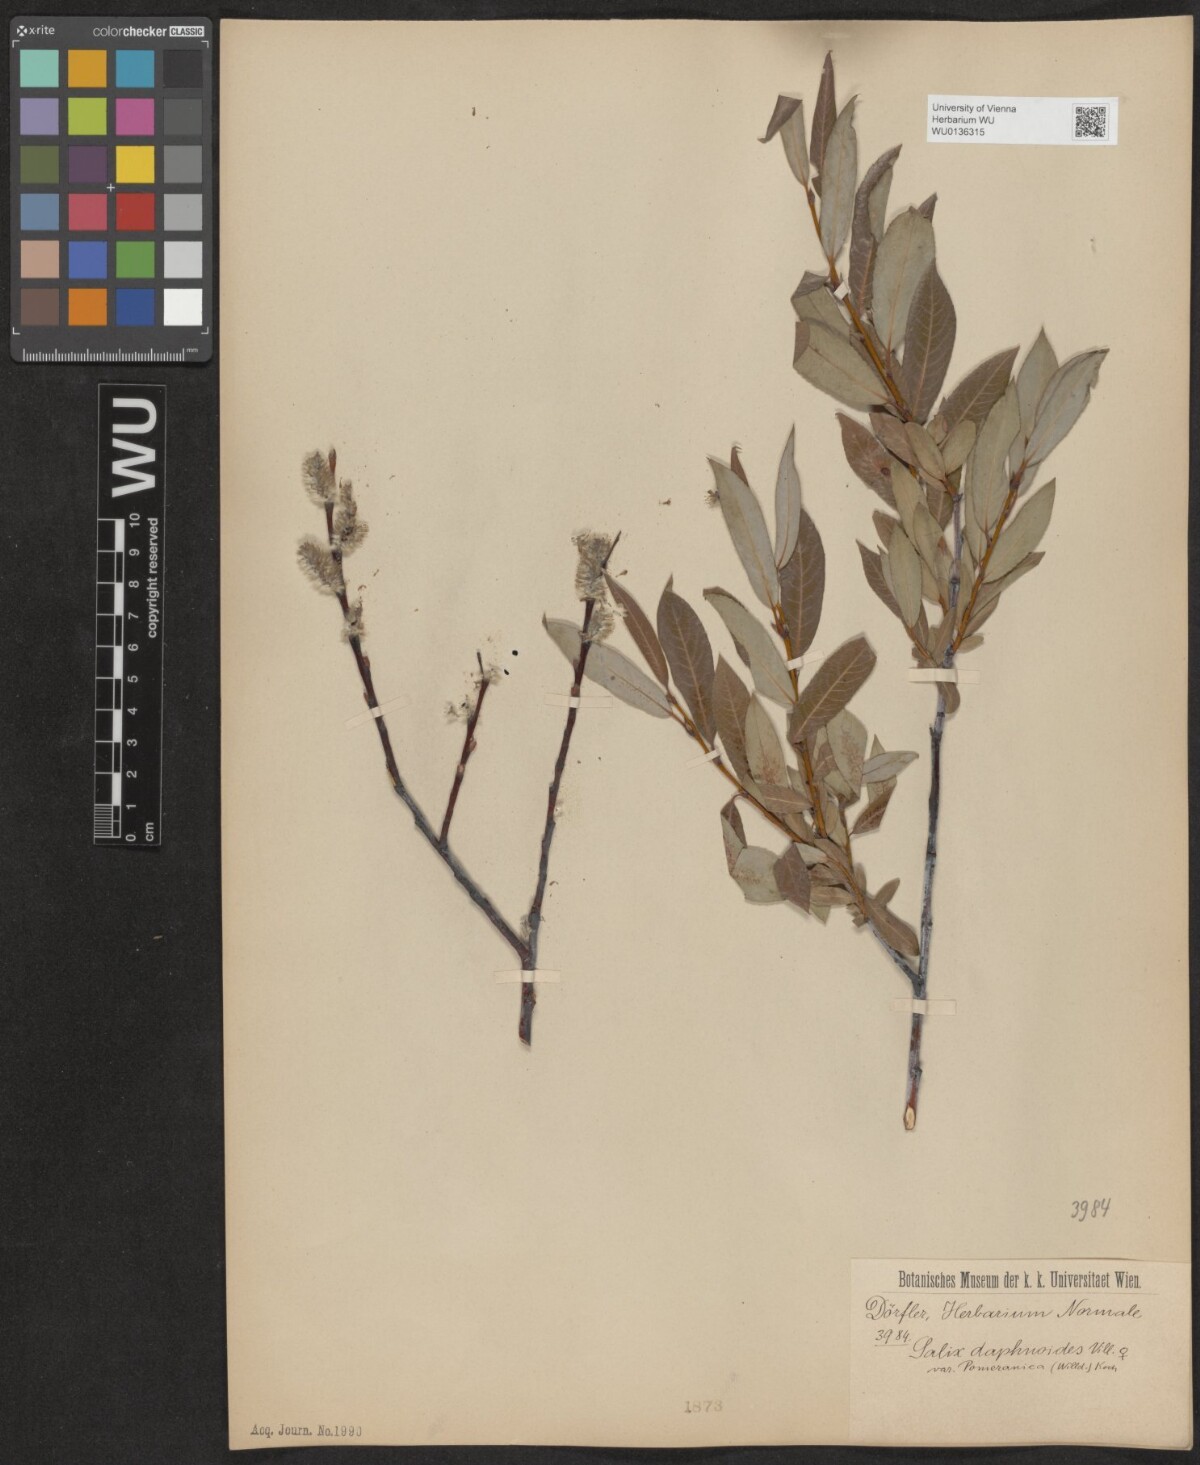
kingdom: Plantae
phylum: Tracheophyta
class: Magnoliopsida
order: Malpighiales
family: Salicaceae
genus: Salix
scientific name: Salix daphnoides
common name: European violet-willow
